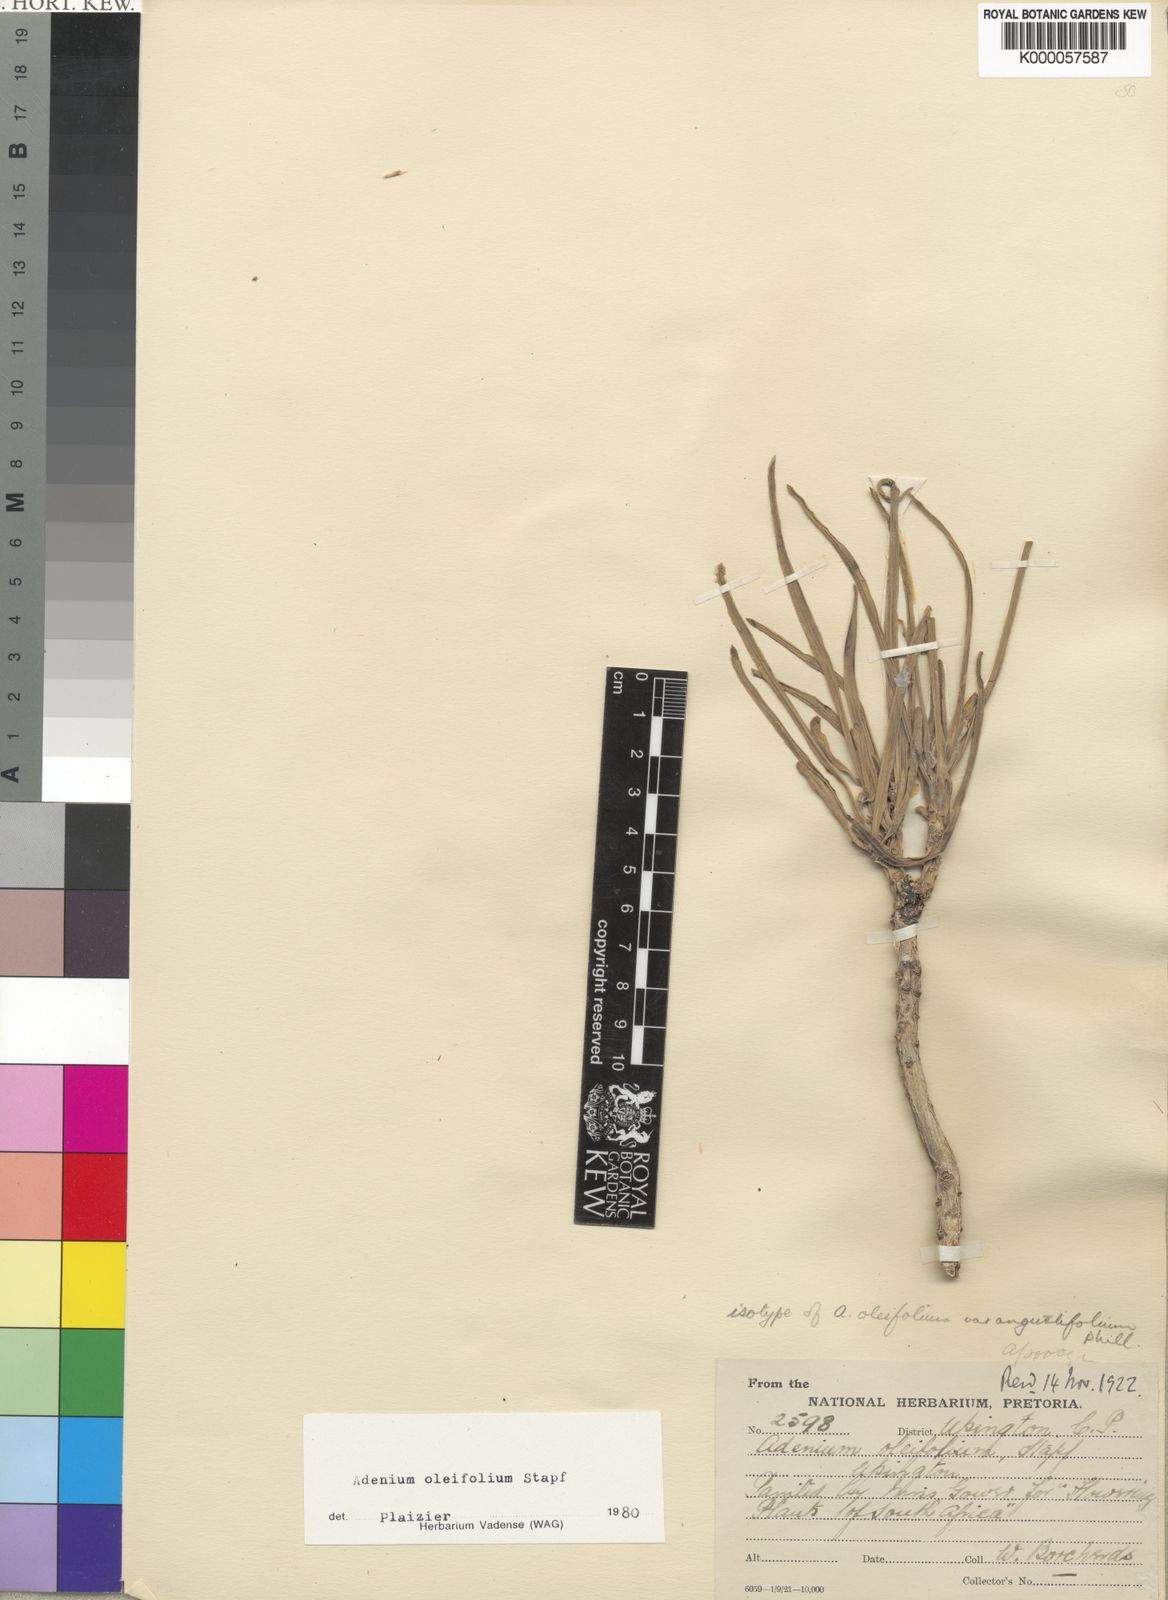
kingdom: Plantae
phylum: Tracheophyta
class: Magnoliopsida
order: Gentianales
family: Apocynaceae
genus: Adenium
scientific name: Adenium obesum
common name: Desert-rose
